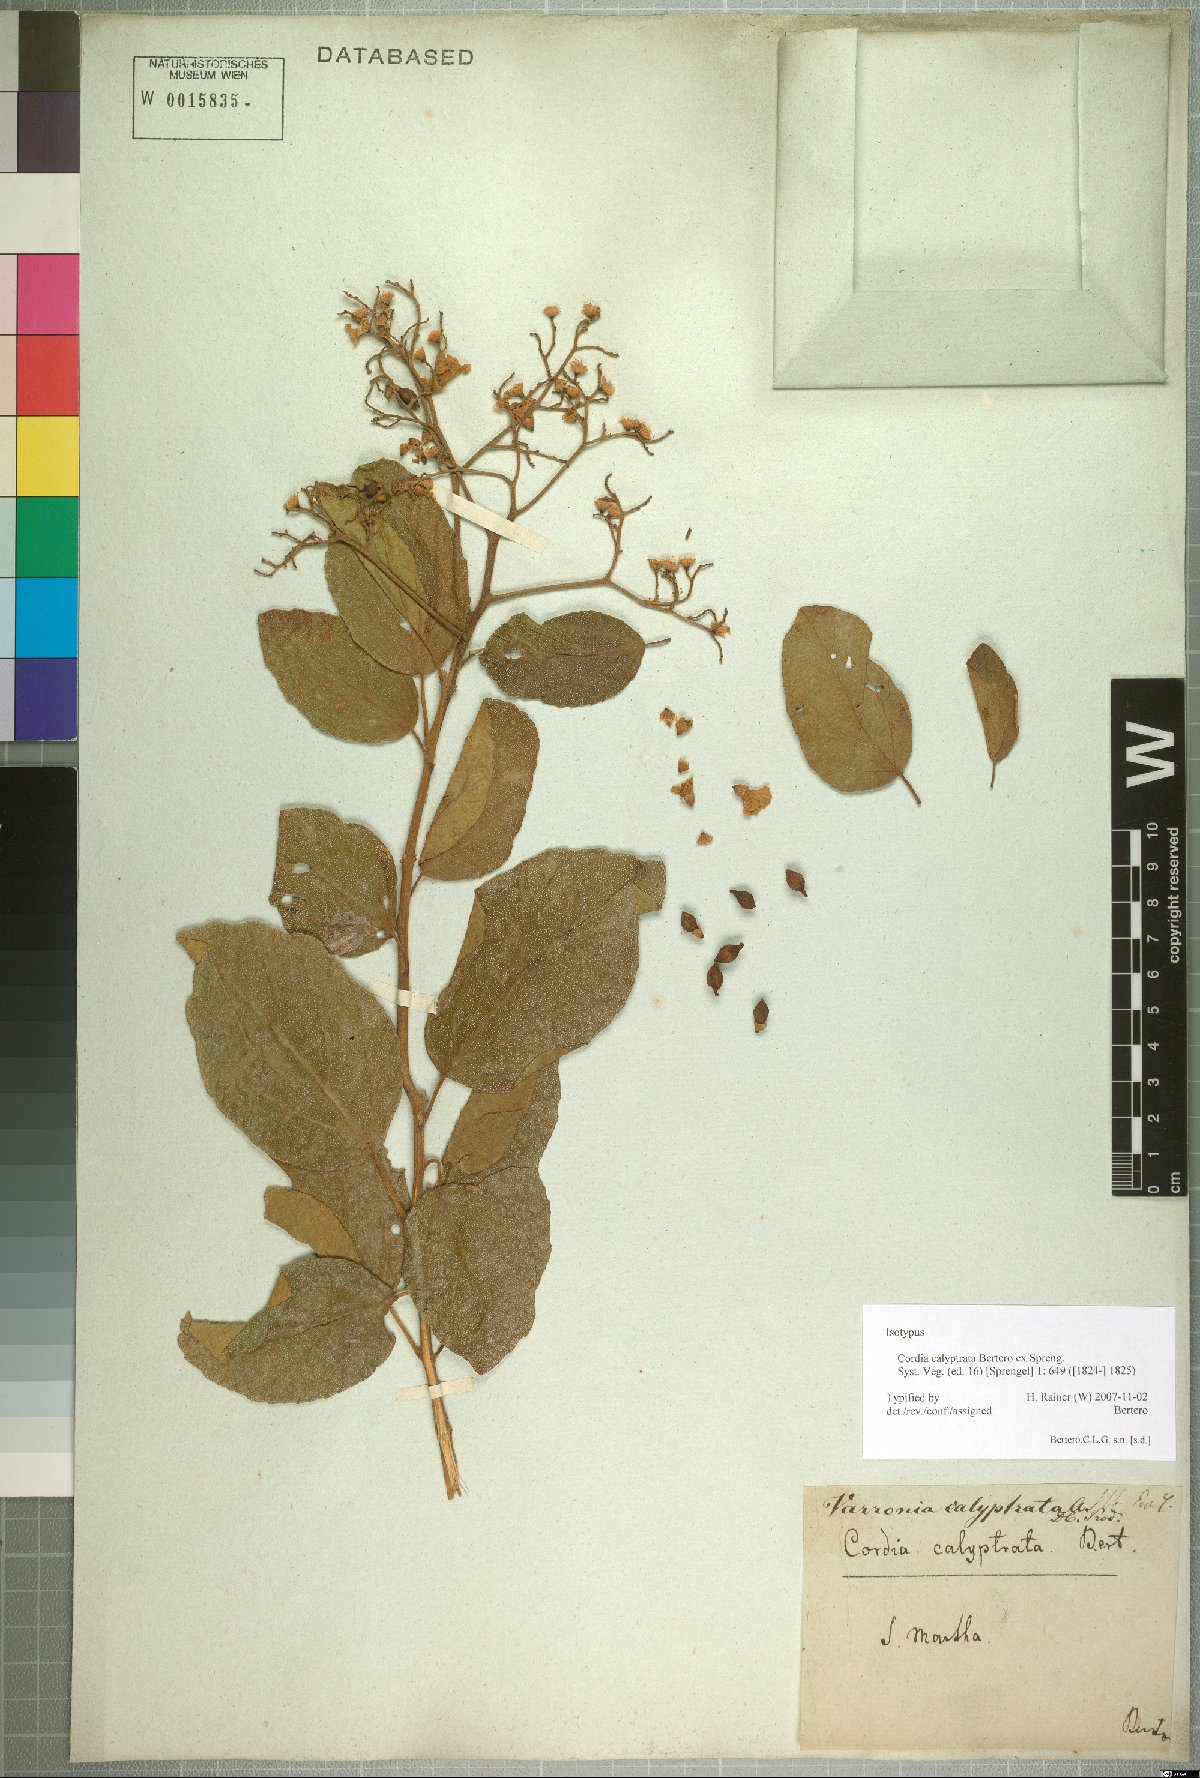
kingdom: Plantae
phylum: Tracheophyta
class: Magnoliopsida
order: Boraginales
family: Cordiaceae
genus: Cordia
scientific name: Cordia dentata
